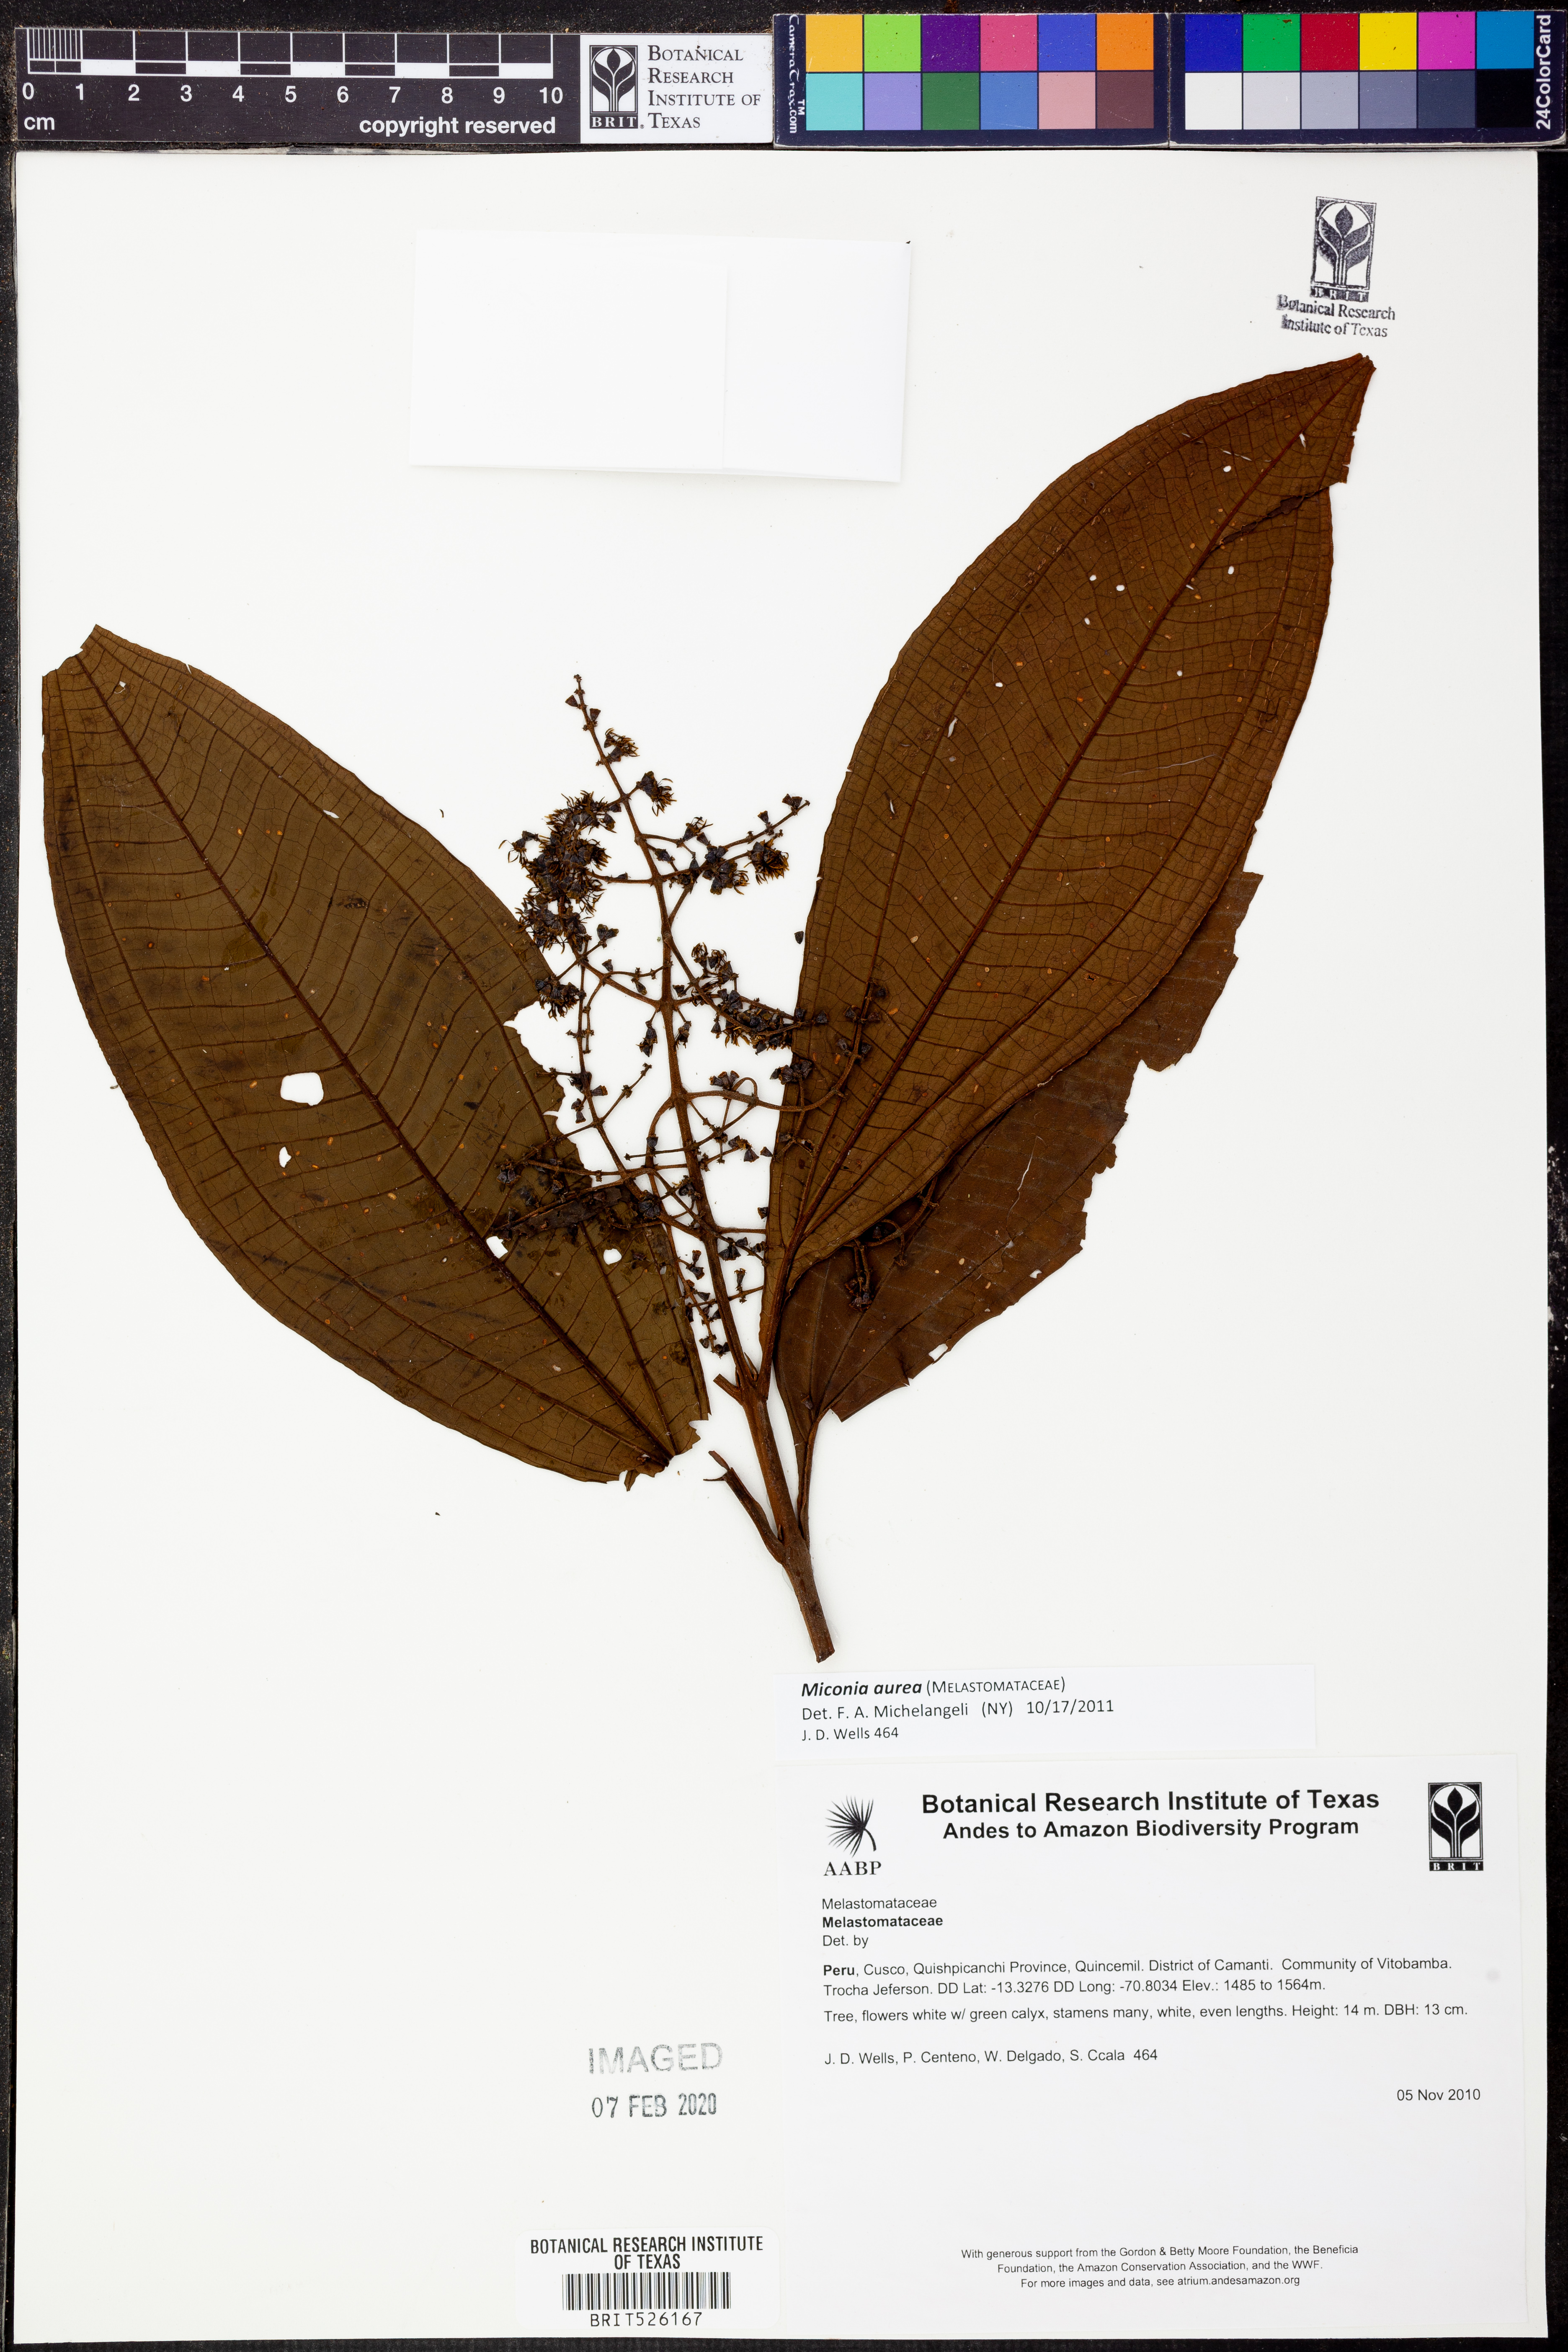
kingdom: Plantae
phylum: Tracheophyta
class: Magnoliopsida
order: Myrtales
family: Melastomataceae
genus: Miconia
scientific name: Miconia aurea
